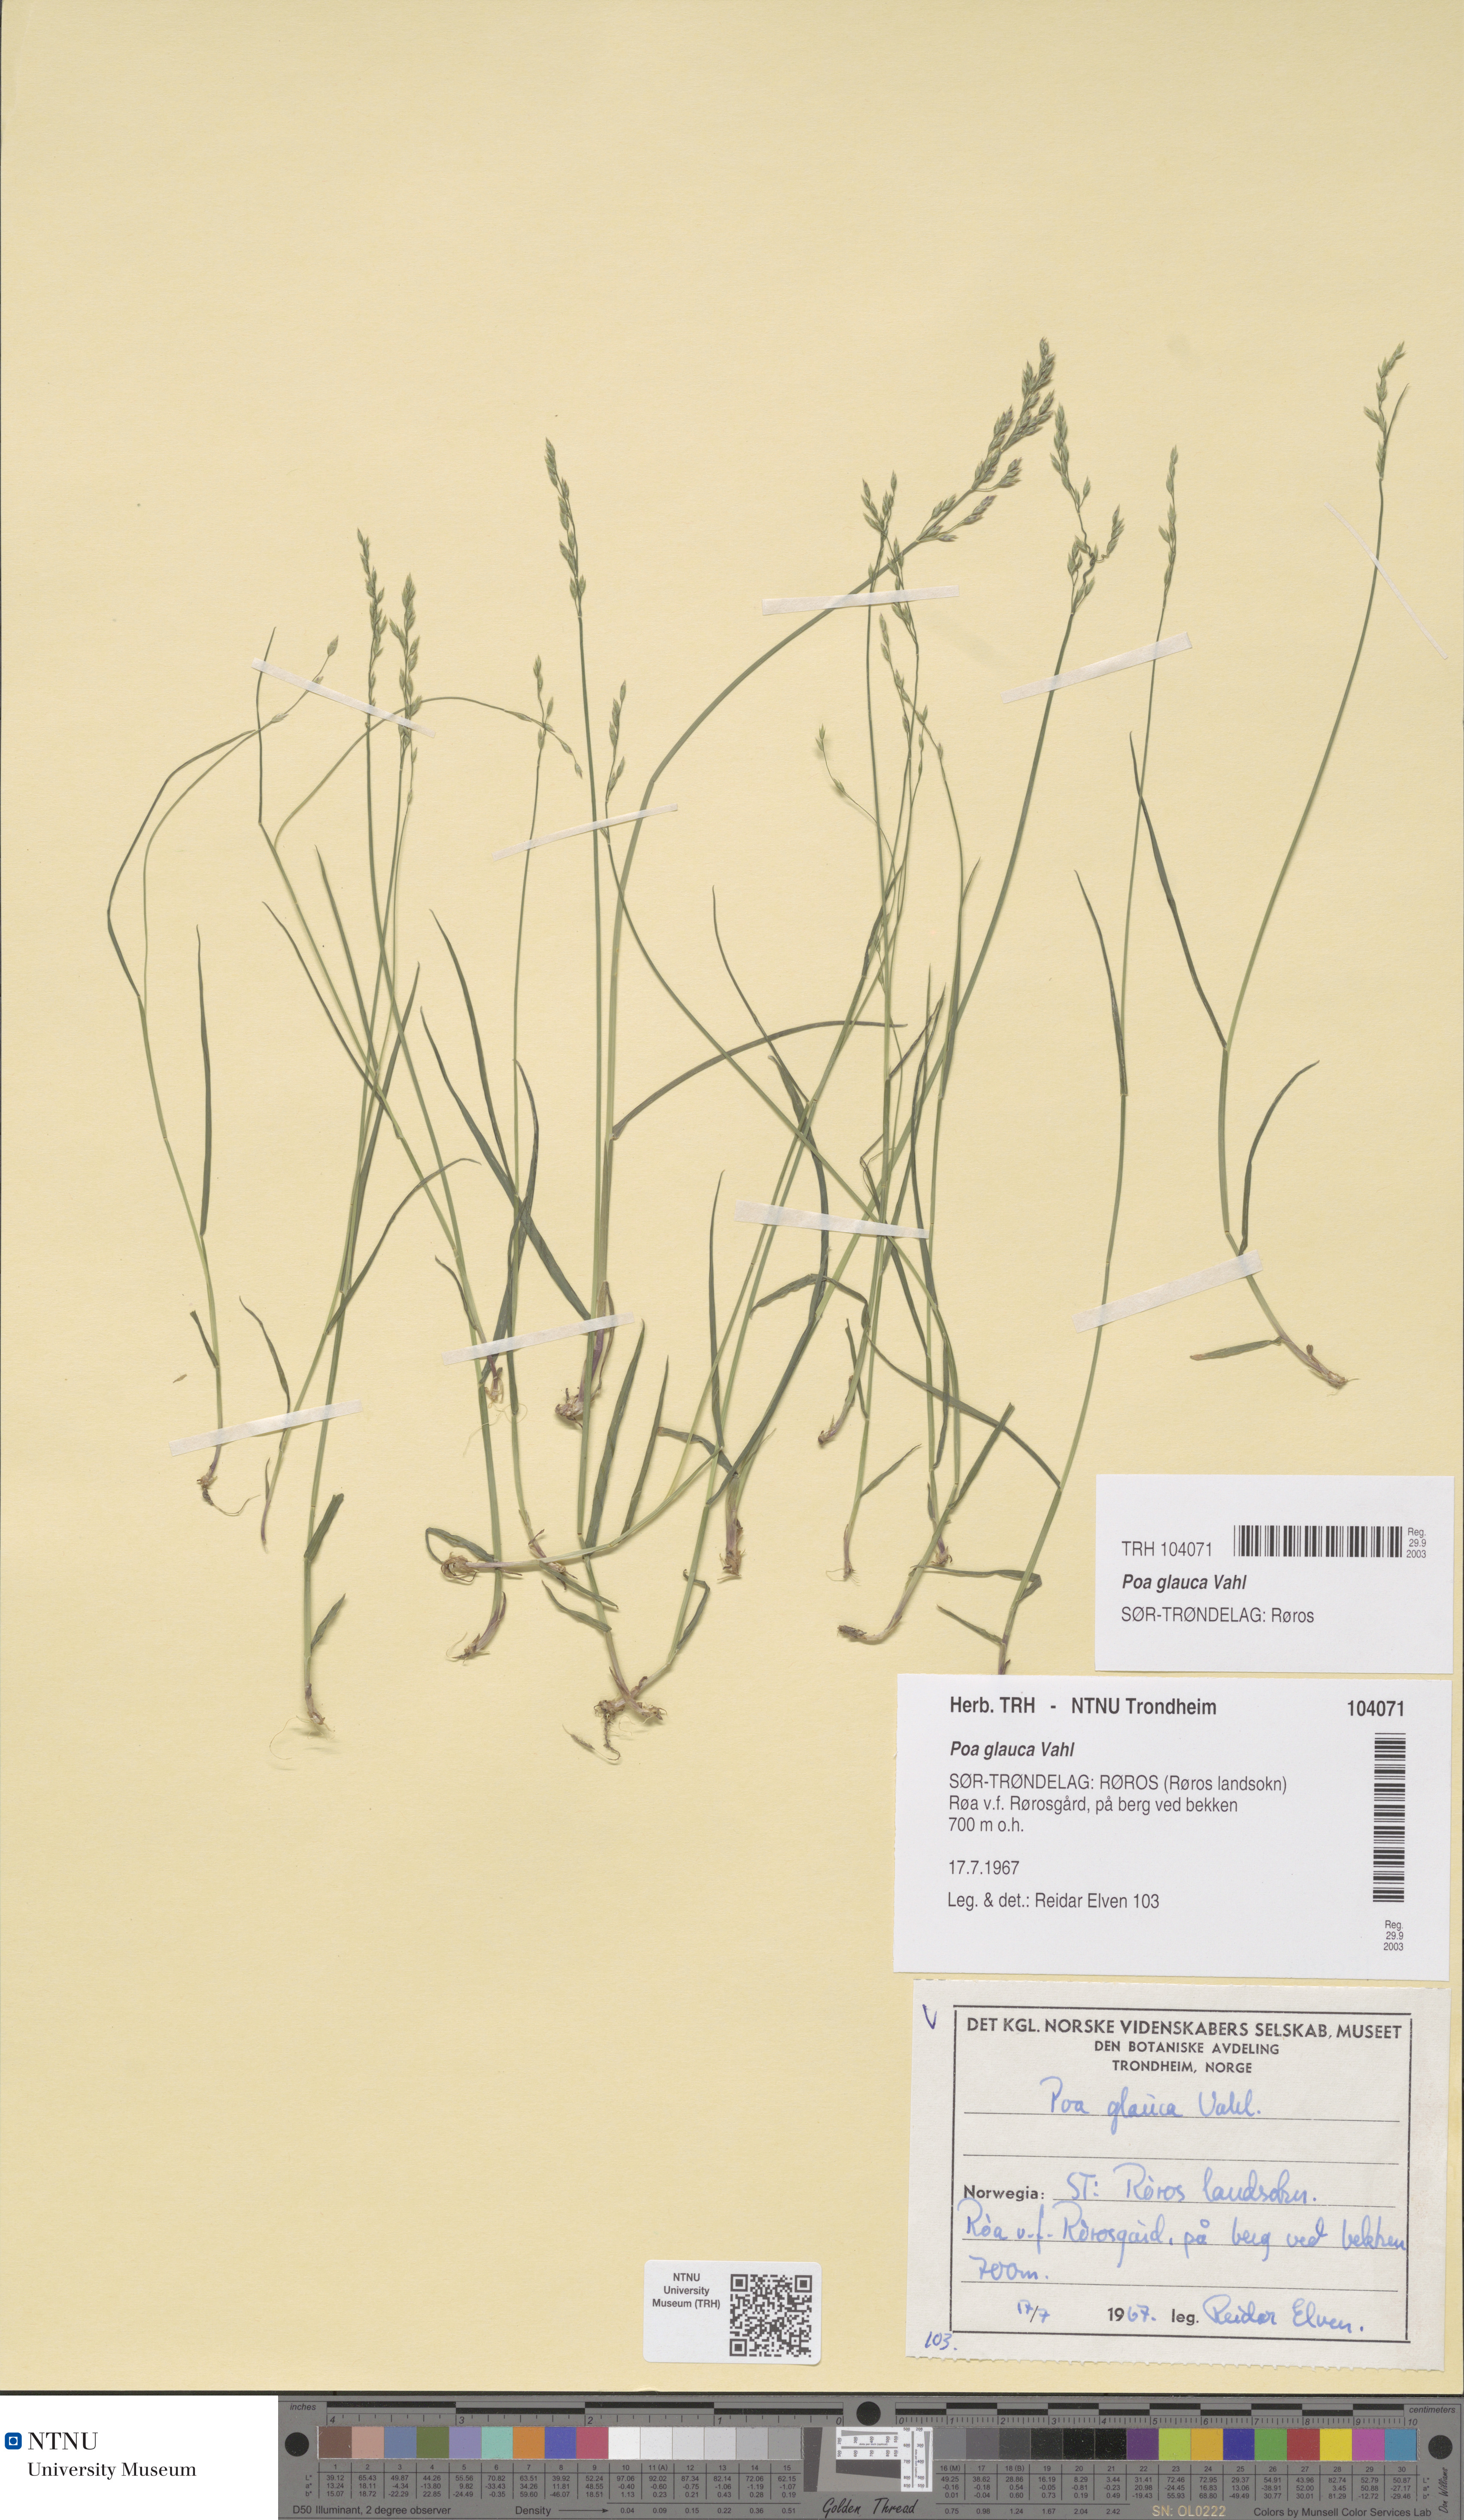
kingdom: Plantae
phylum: Tracheophyta
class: Liliopsida
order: Poales
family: Poaceae
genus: Poa
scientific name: Poa glauca
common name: Glaucous bluegrass
